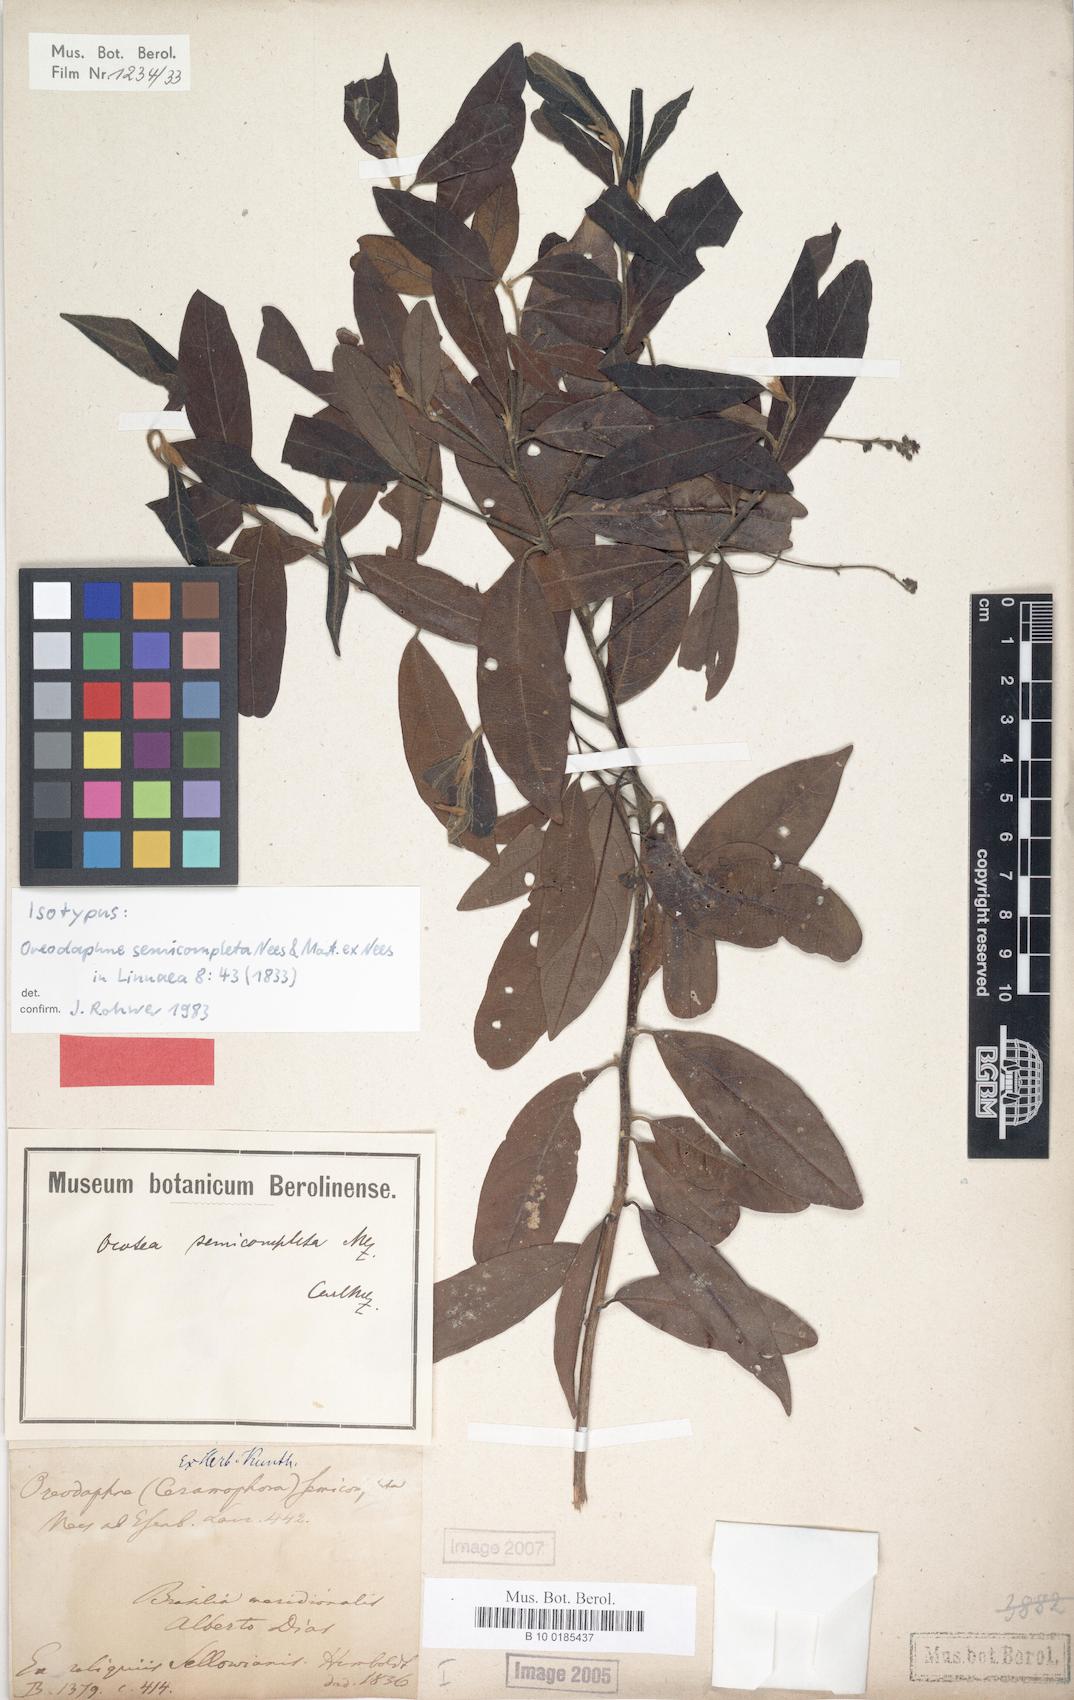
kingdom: Plantae
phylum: Tracheophyta
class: Magnoliopsida
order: Laurales
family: Lauraceae
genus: Ocotea
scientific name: Ocotea semicompleta
